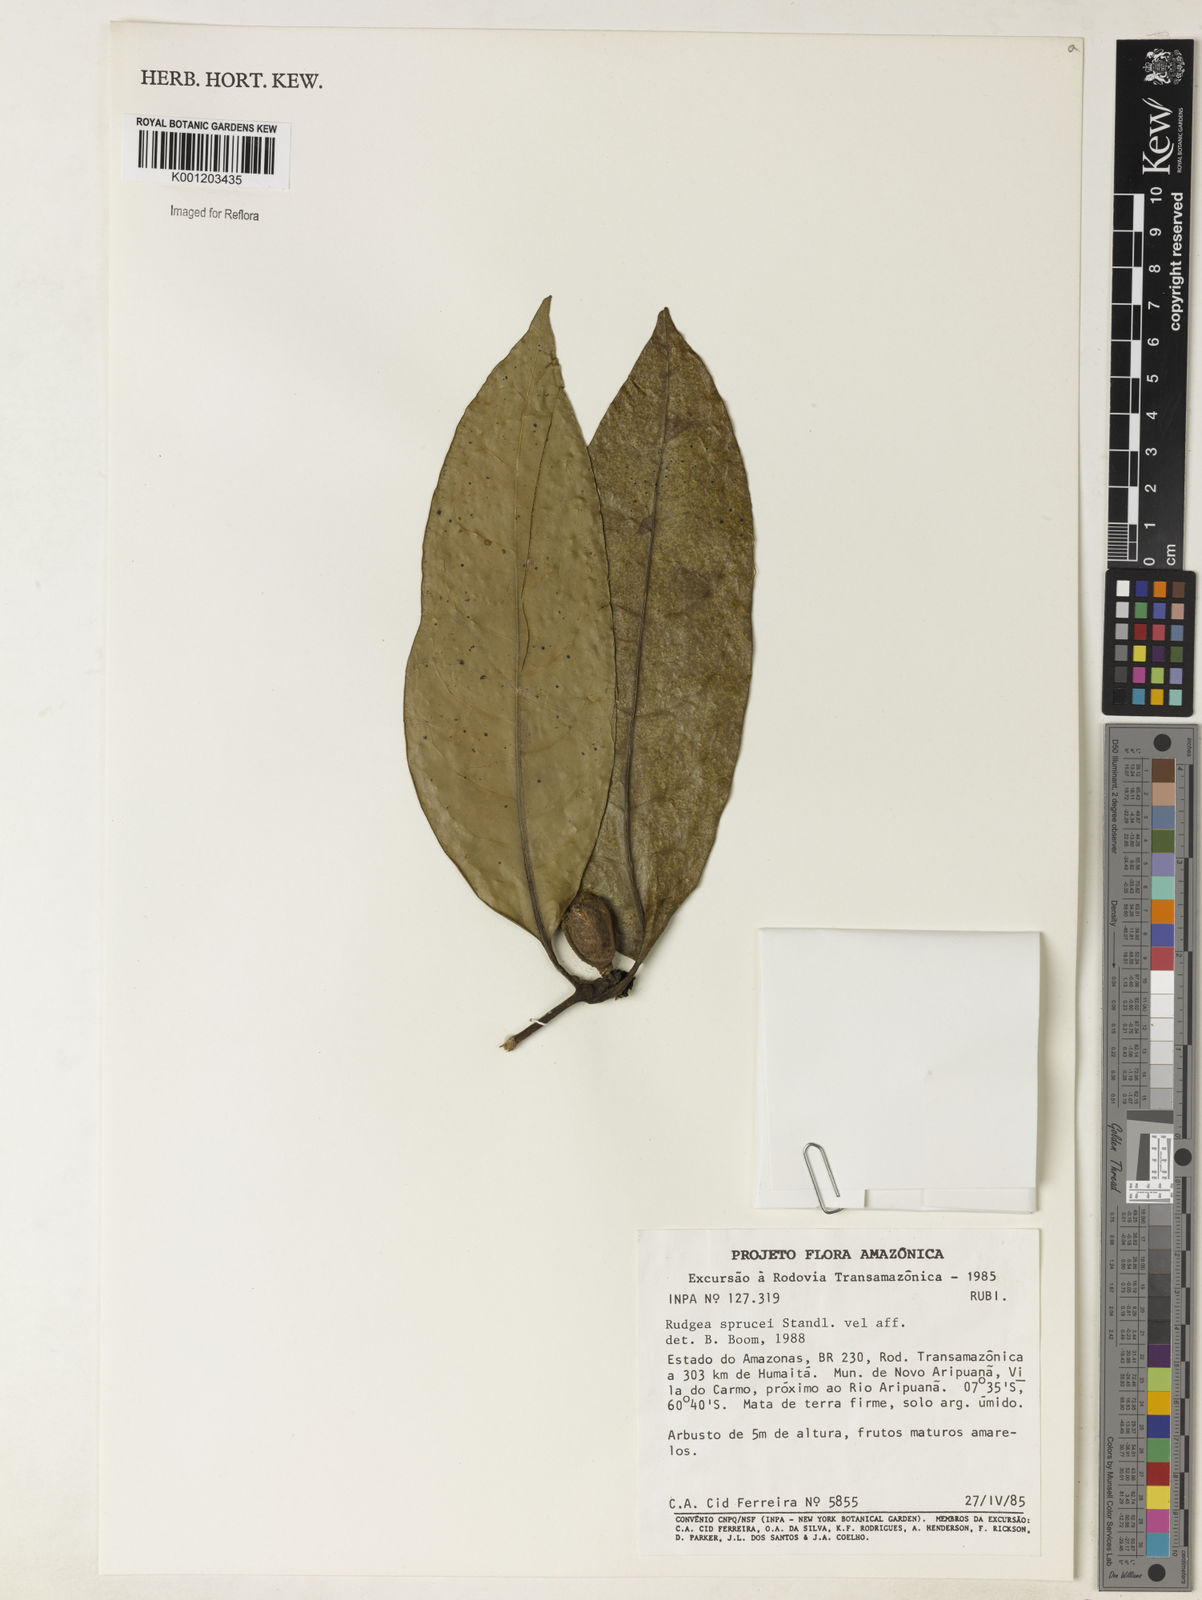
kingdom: Plantae
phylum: Tracheophyta
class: Magnoliopsida
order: Gentianales
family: Rubiaceae
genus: Rudgea
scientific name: Rudgea sprucei
